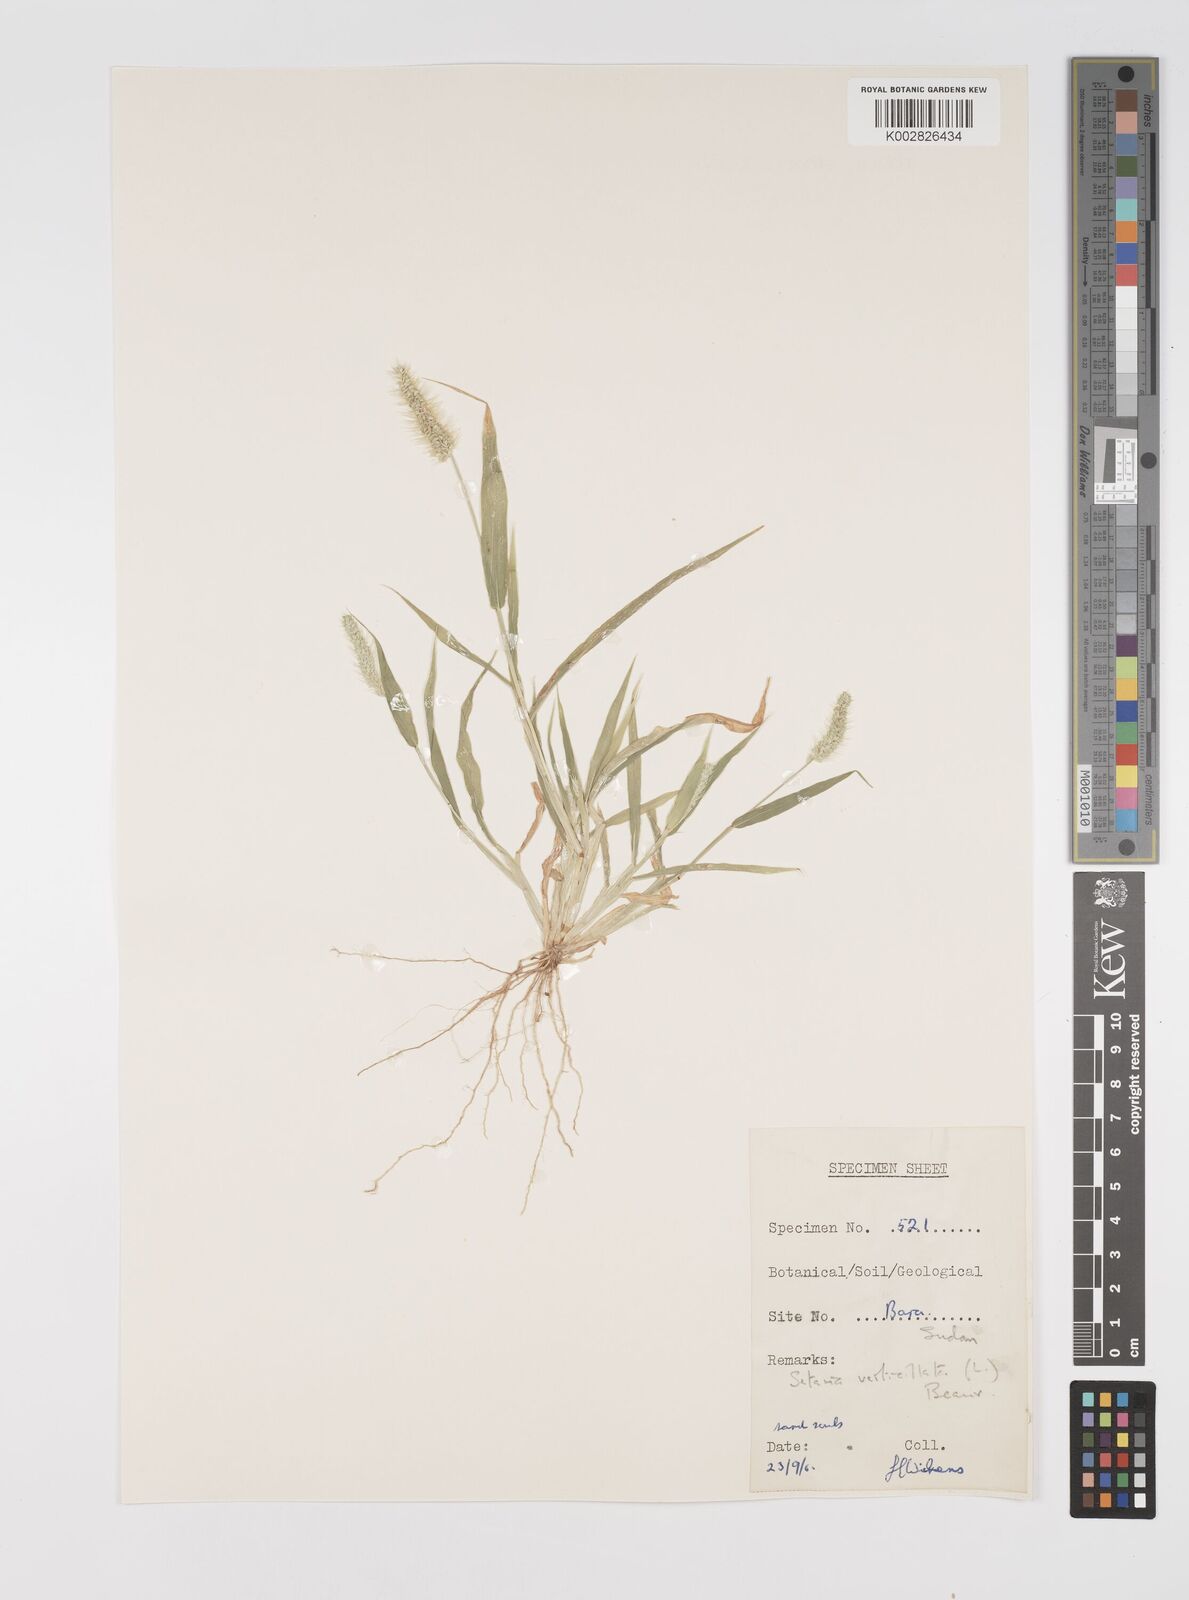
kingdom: Plantae
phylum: Tracheophyta
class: Liliopsida
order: Poales
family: Poaceae
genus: Setaria
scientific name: Setaria verticillata
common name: Hooked bristlegrass
